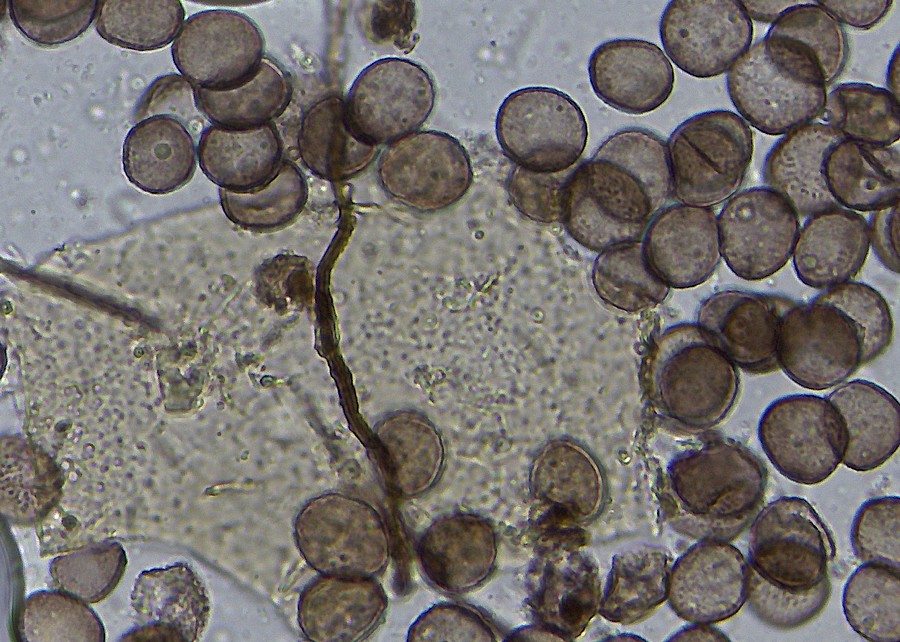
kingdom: Protozoa
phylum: Mycetozoa
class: Myxomycetes
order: Physarales
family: Didymiaceae
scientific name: Didymiaceae
